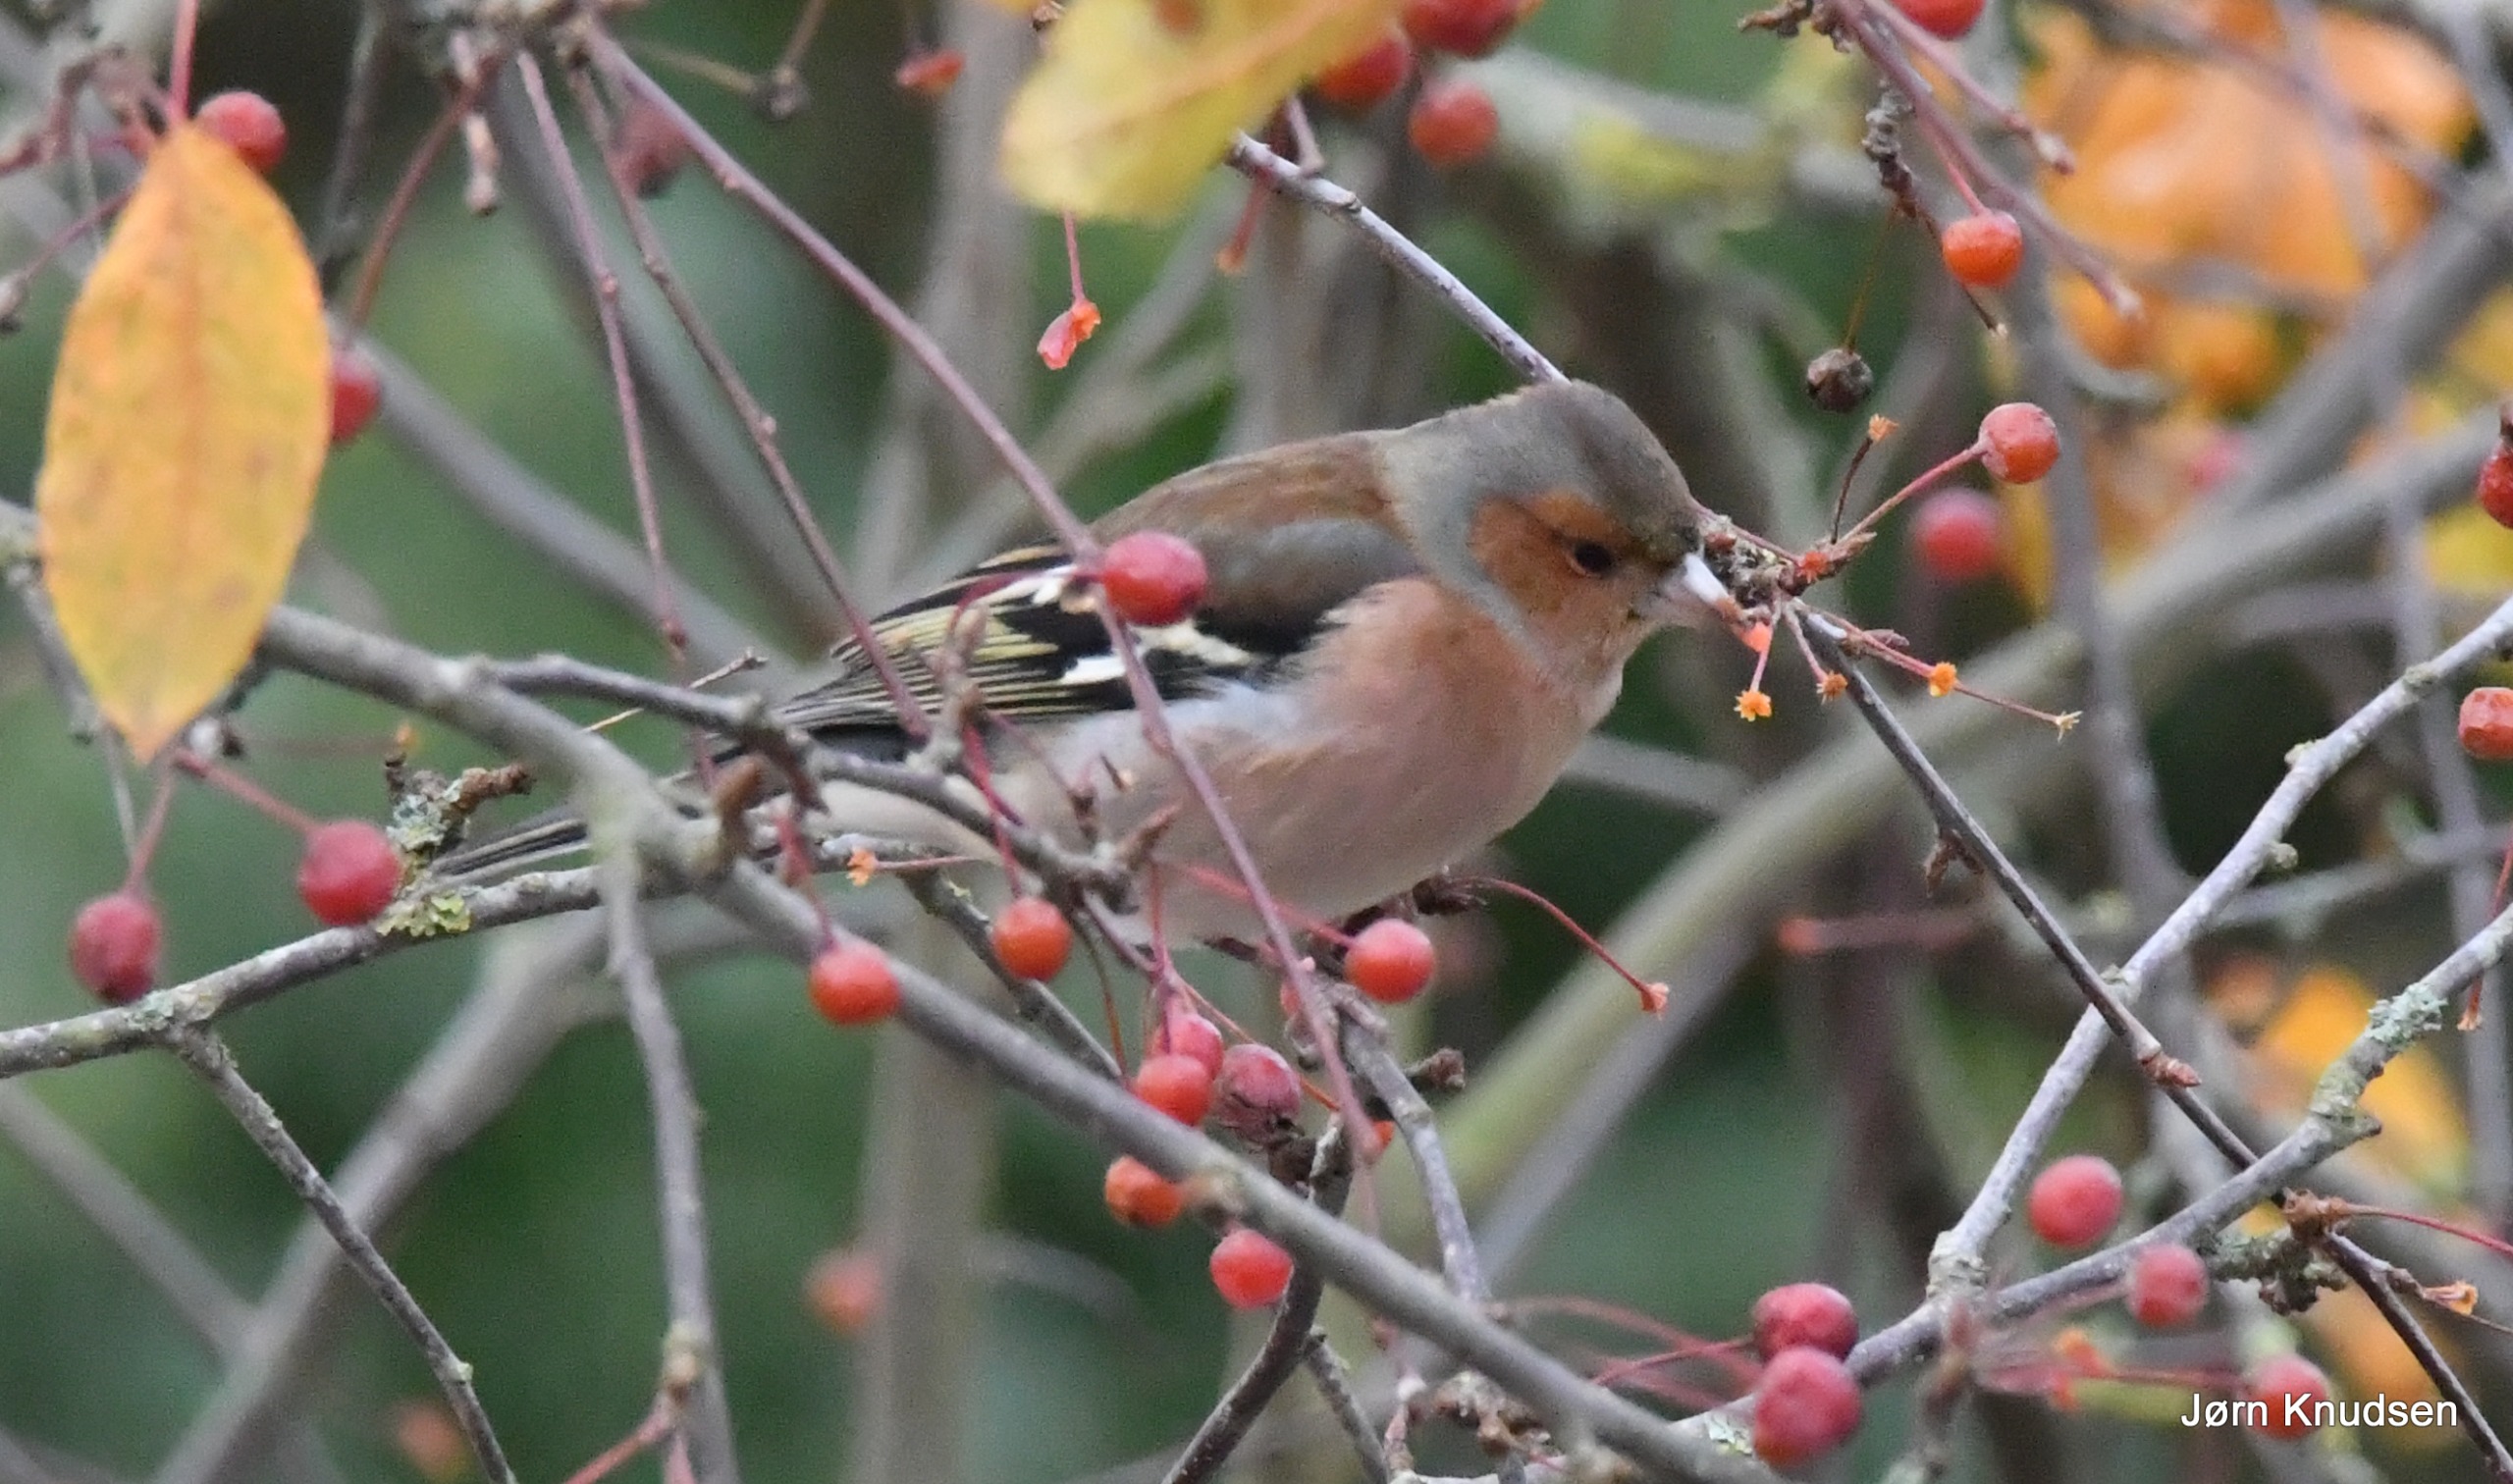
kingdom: Animalia
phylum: Chordata
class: Aves
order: Passeriformes
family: Fringillidae
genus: Fringilla
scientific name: Fringilla coelebs
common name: Bogfinke
